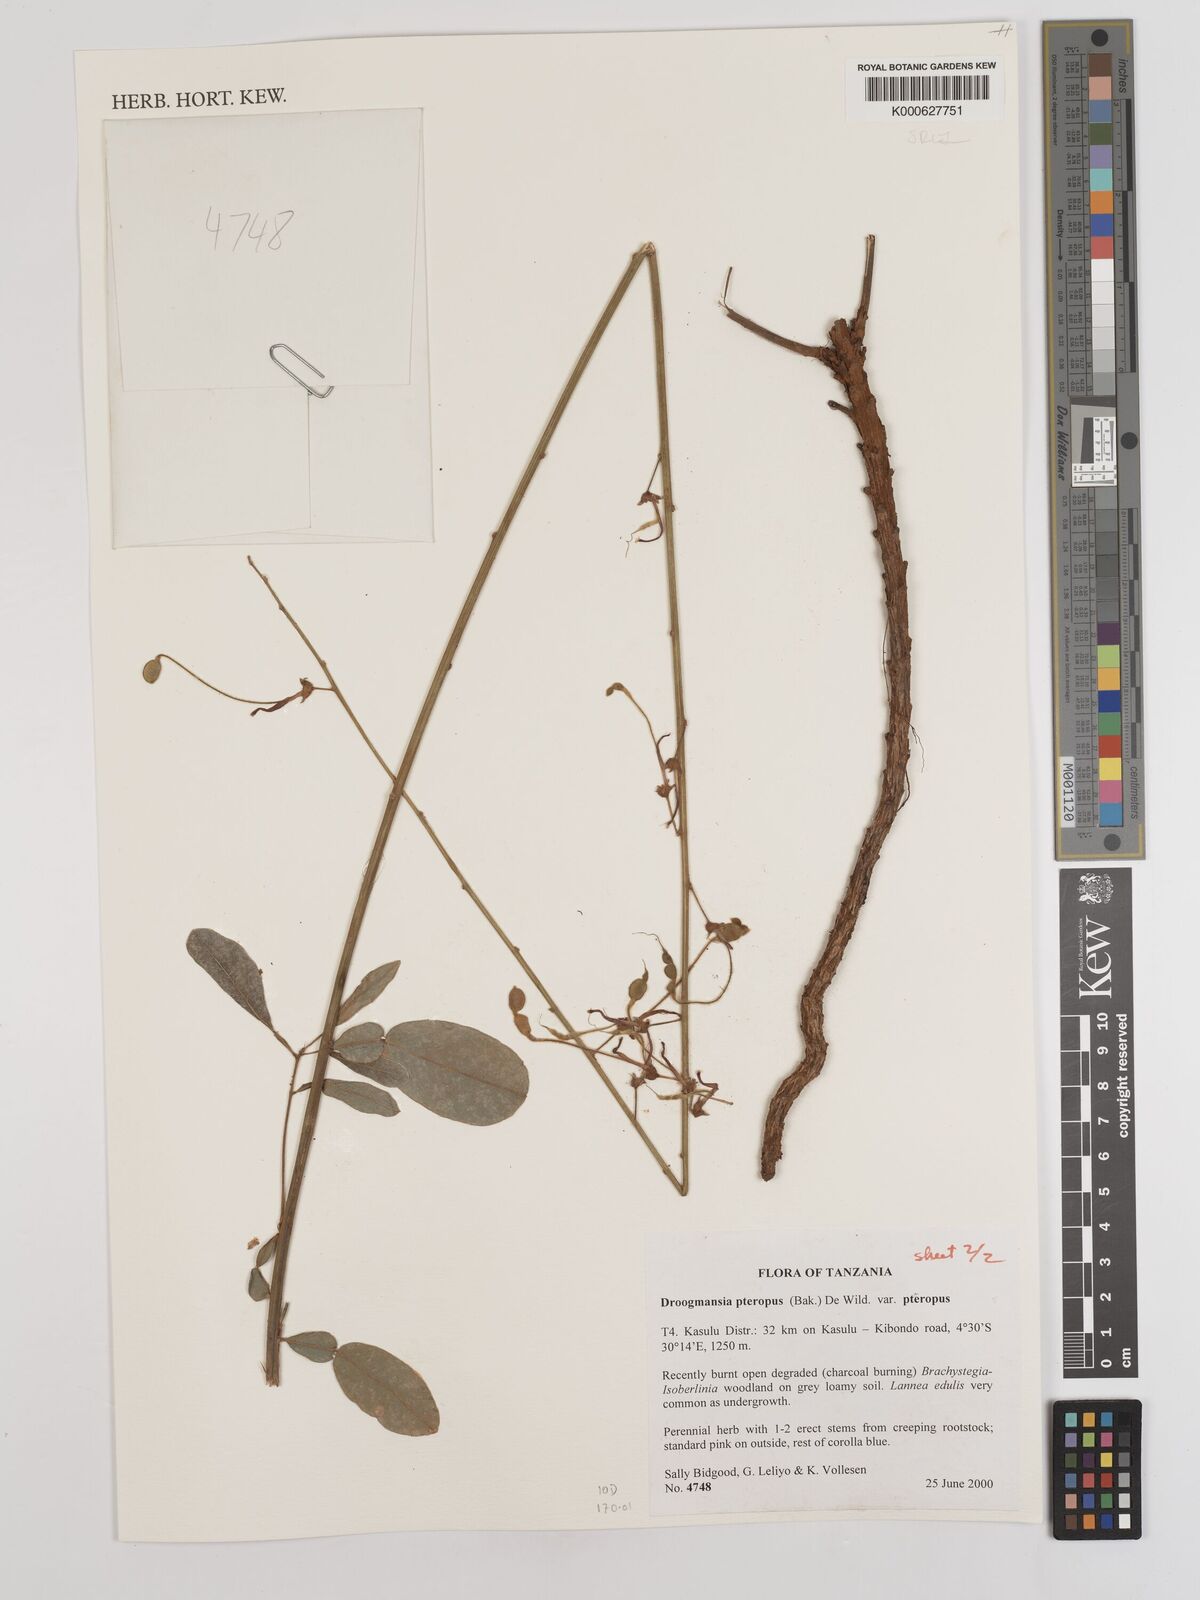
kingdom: Plantae
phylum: Tracheophyta
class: Magnoliopsida
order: Fabales
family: Fabaceae
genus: Droogmansia
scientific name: Droogmansia
